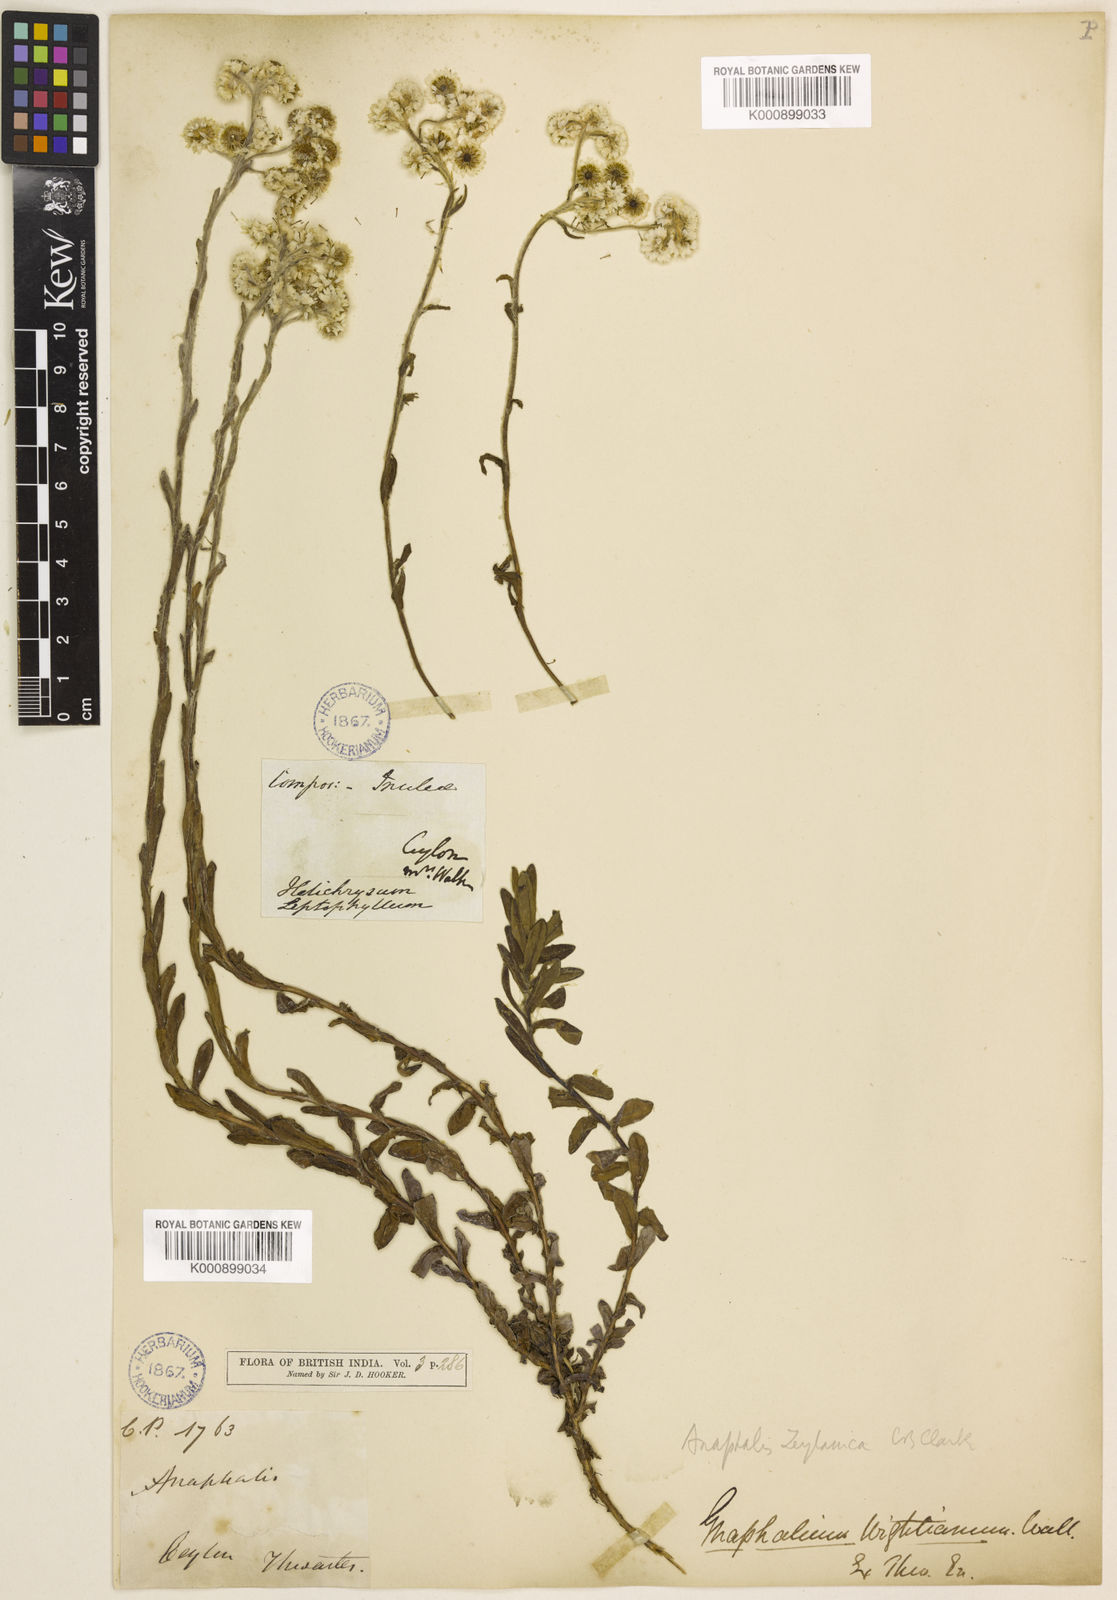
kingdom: Plantae
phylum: Tracheophyta
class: Magnoliopsida
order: Asterales
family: Asteraceae
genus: Anaphalis
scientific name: Anaphalis zeylanica
